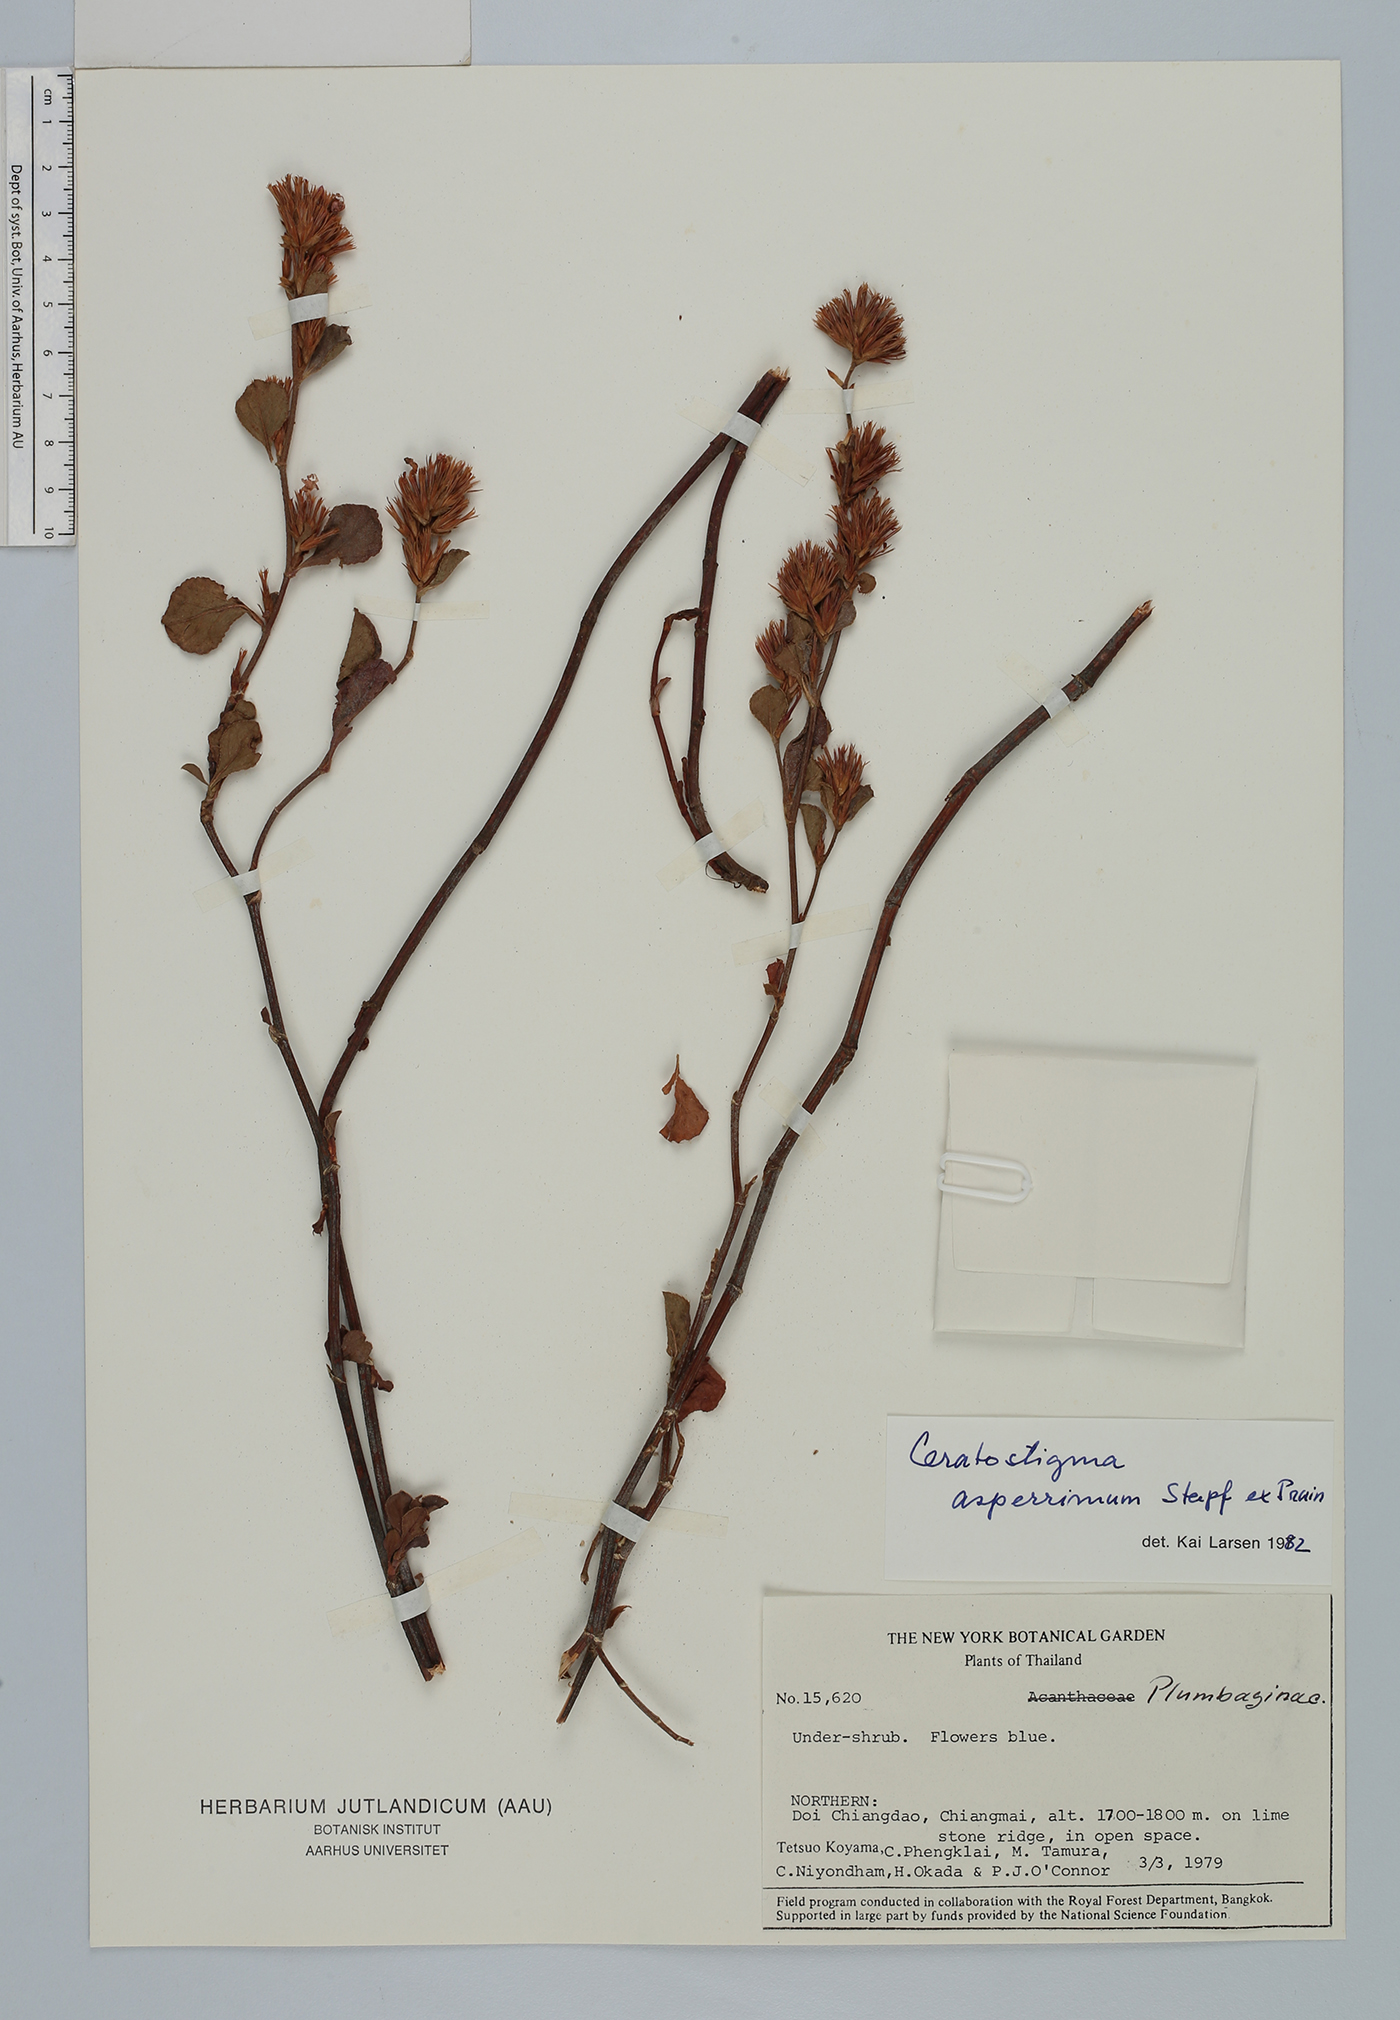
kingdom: Plantae
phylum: Tracheophyta
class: Magnoliopsida
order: Caryophyllales
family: Plumbaginaceae
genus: Ceratostigma
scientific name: Ceratostigma asperrimum
